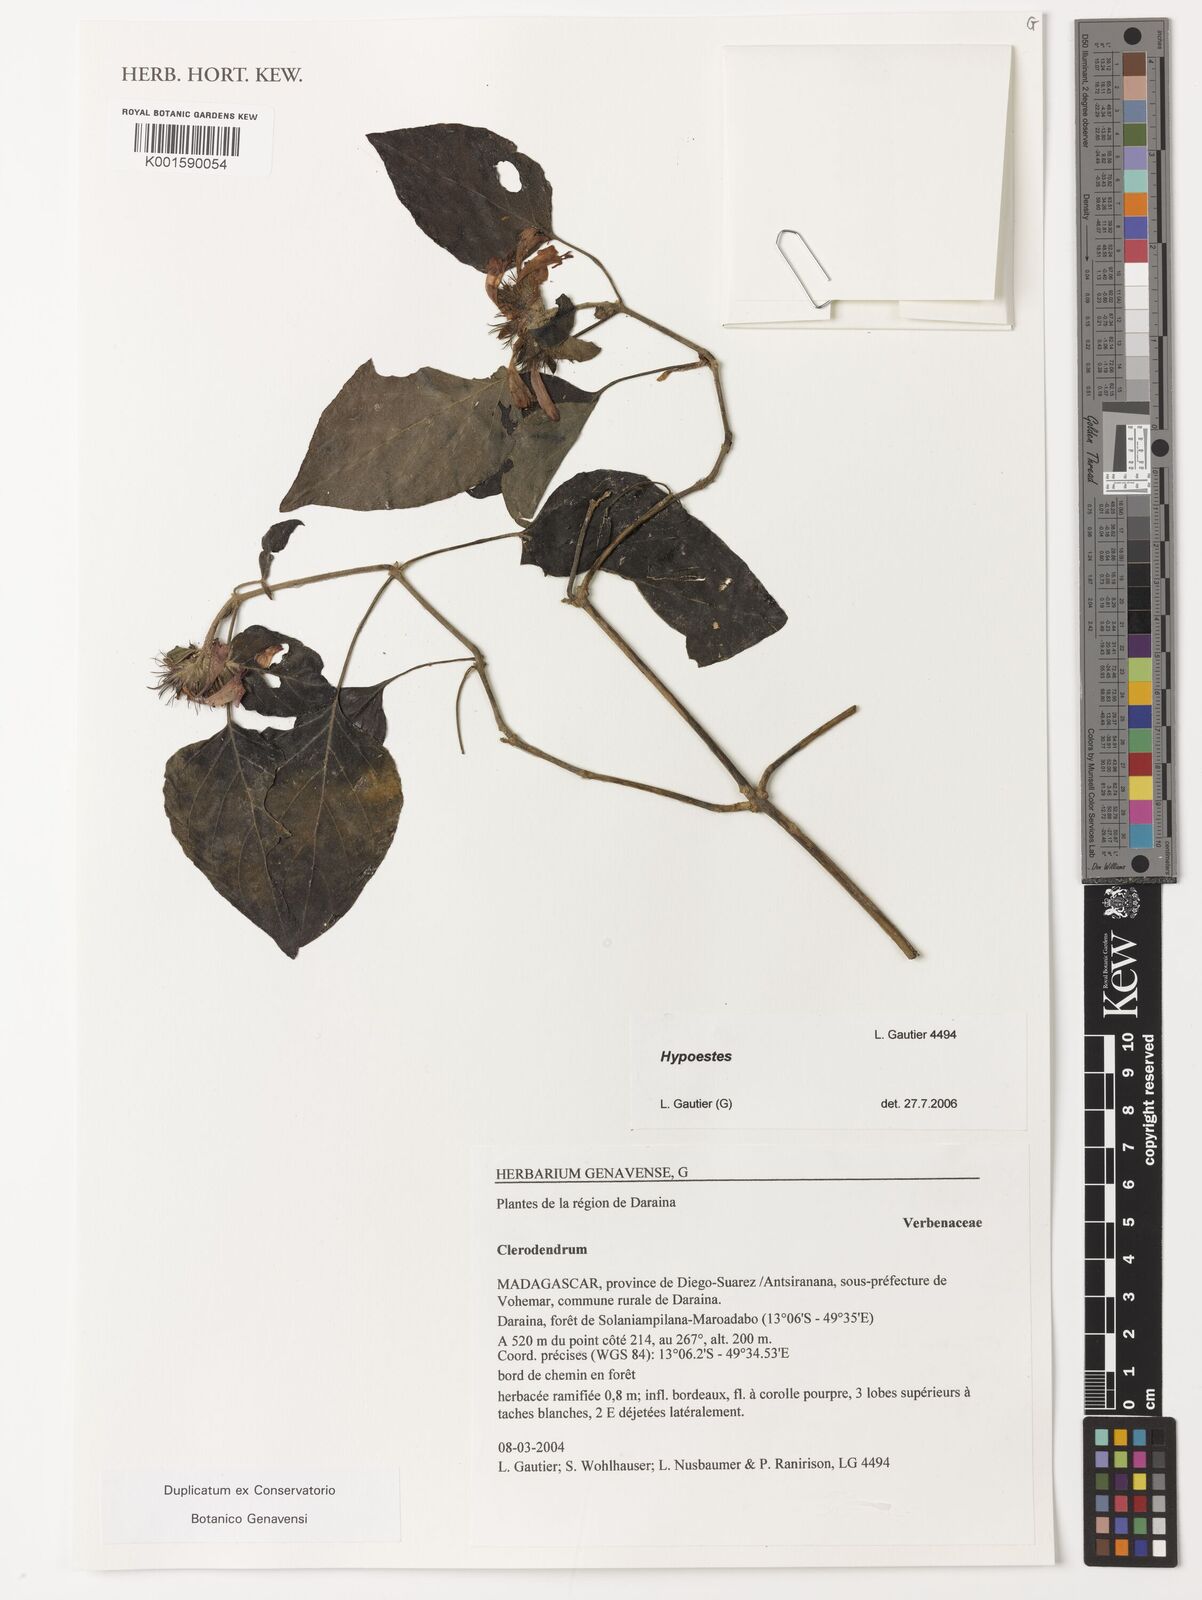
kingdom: Plantae
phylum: Tracheophyta
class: Magnoliopsida
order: Lamiales
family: Acanthaceae
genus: Hypoestes
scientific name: Hypoestes
